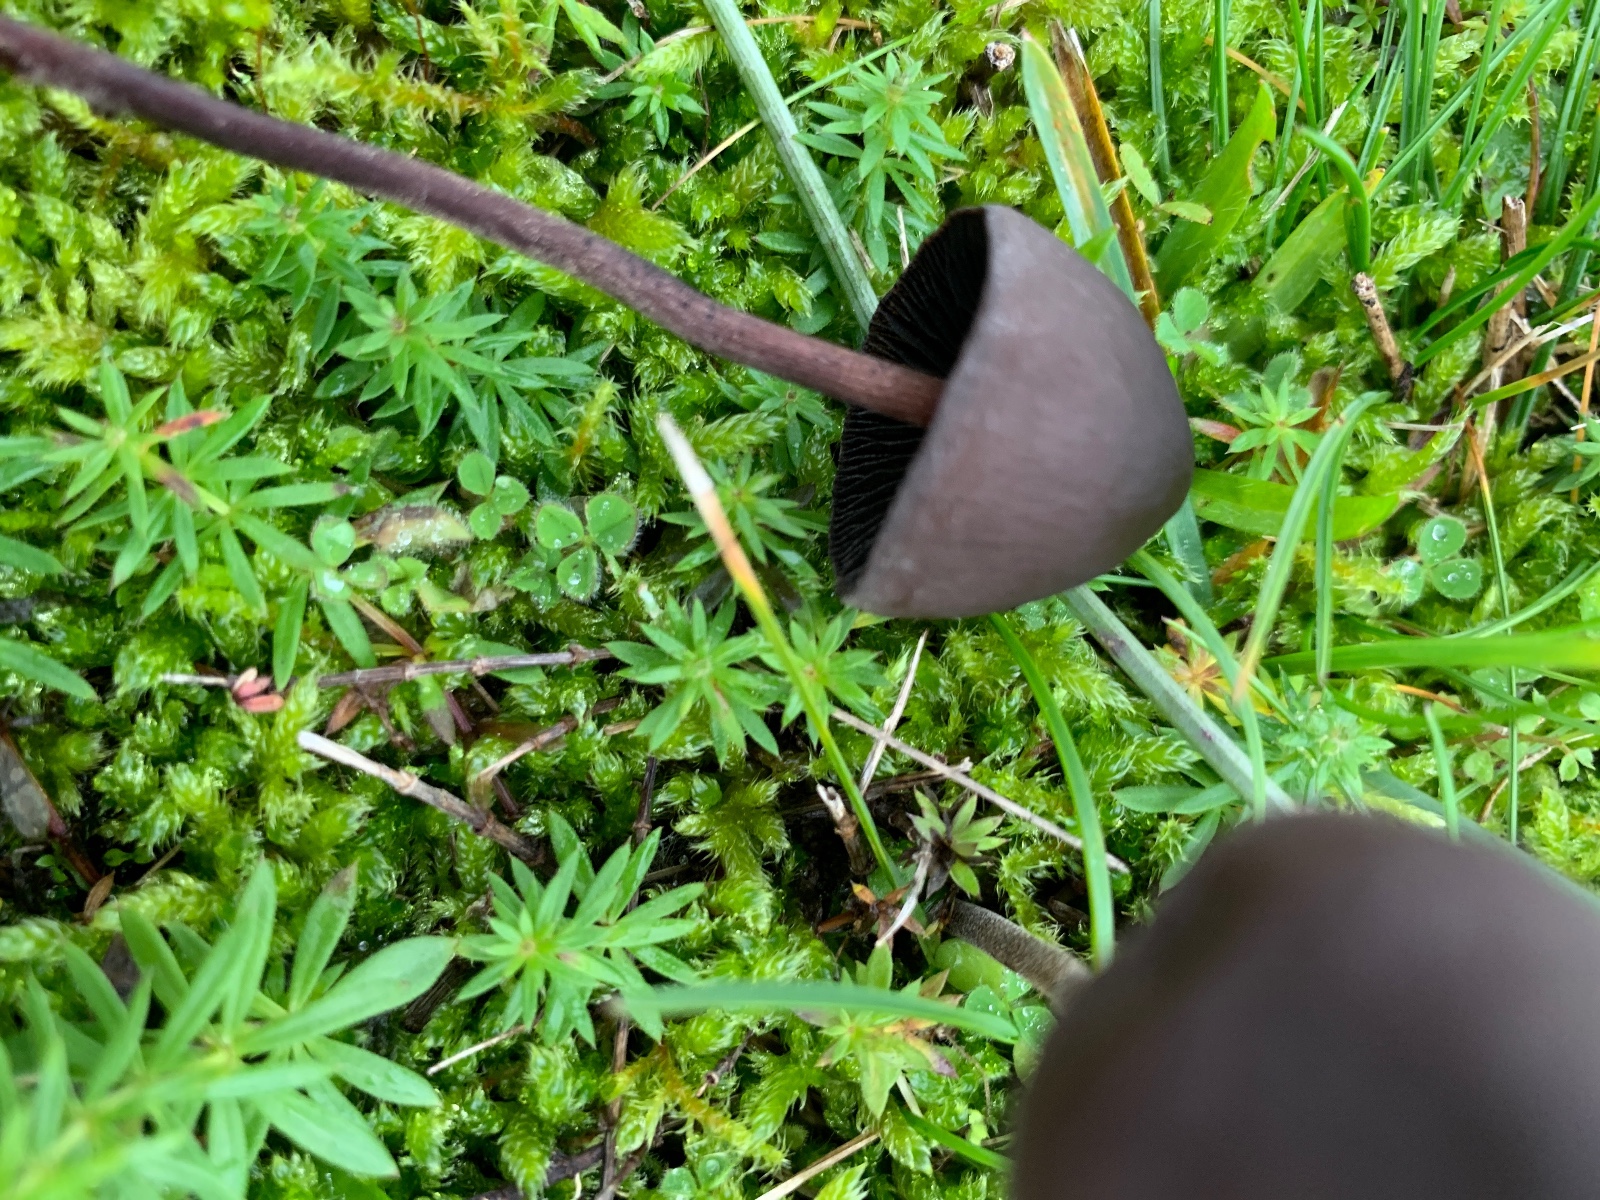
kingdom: Fungi
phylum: Basidiomycota
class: Agaricomycetes
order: Agaricales
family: Bolbitiaceae
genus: Panaeolus
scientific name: Panaeolus acuminatus
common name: høj glanshat
